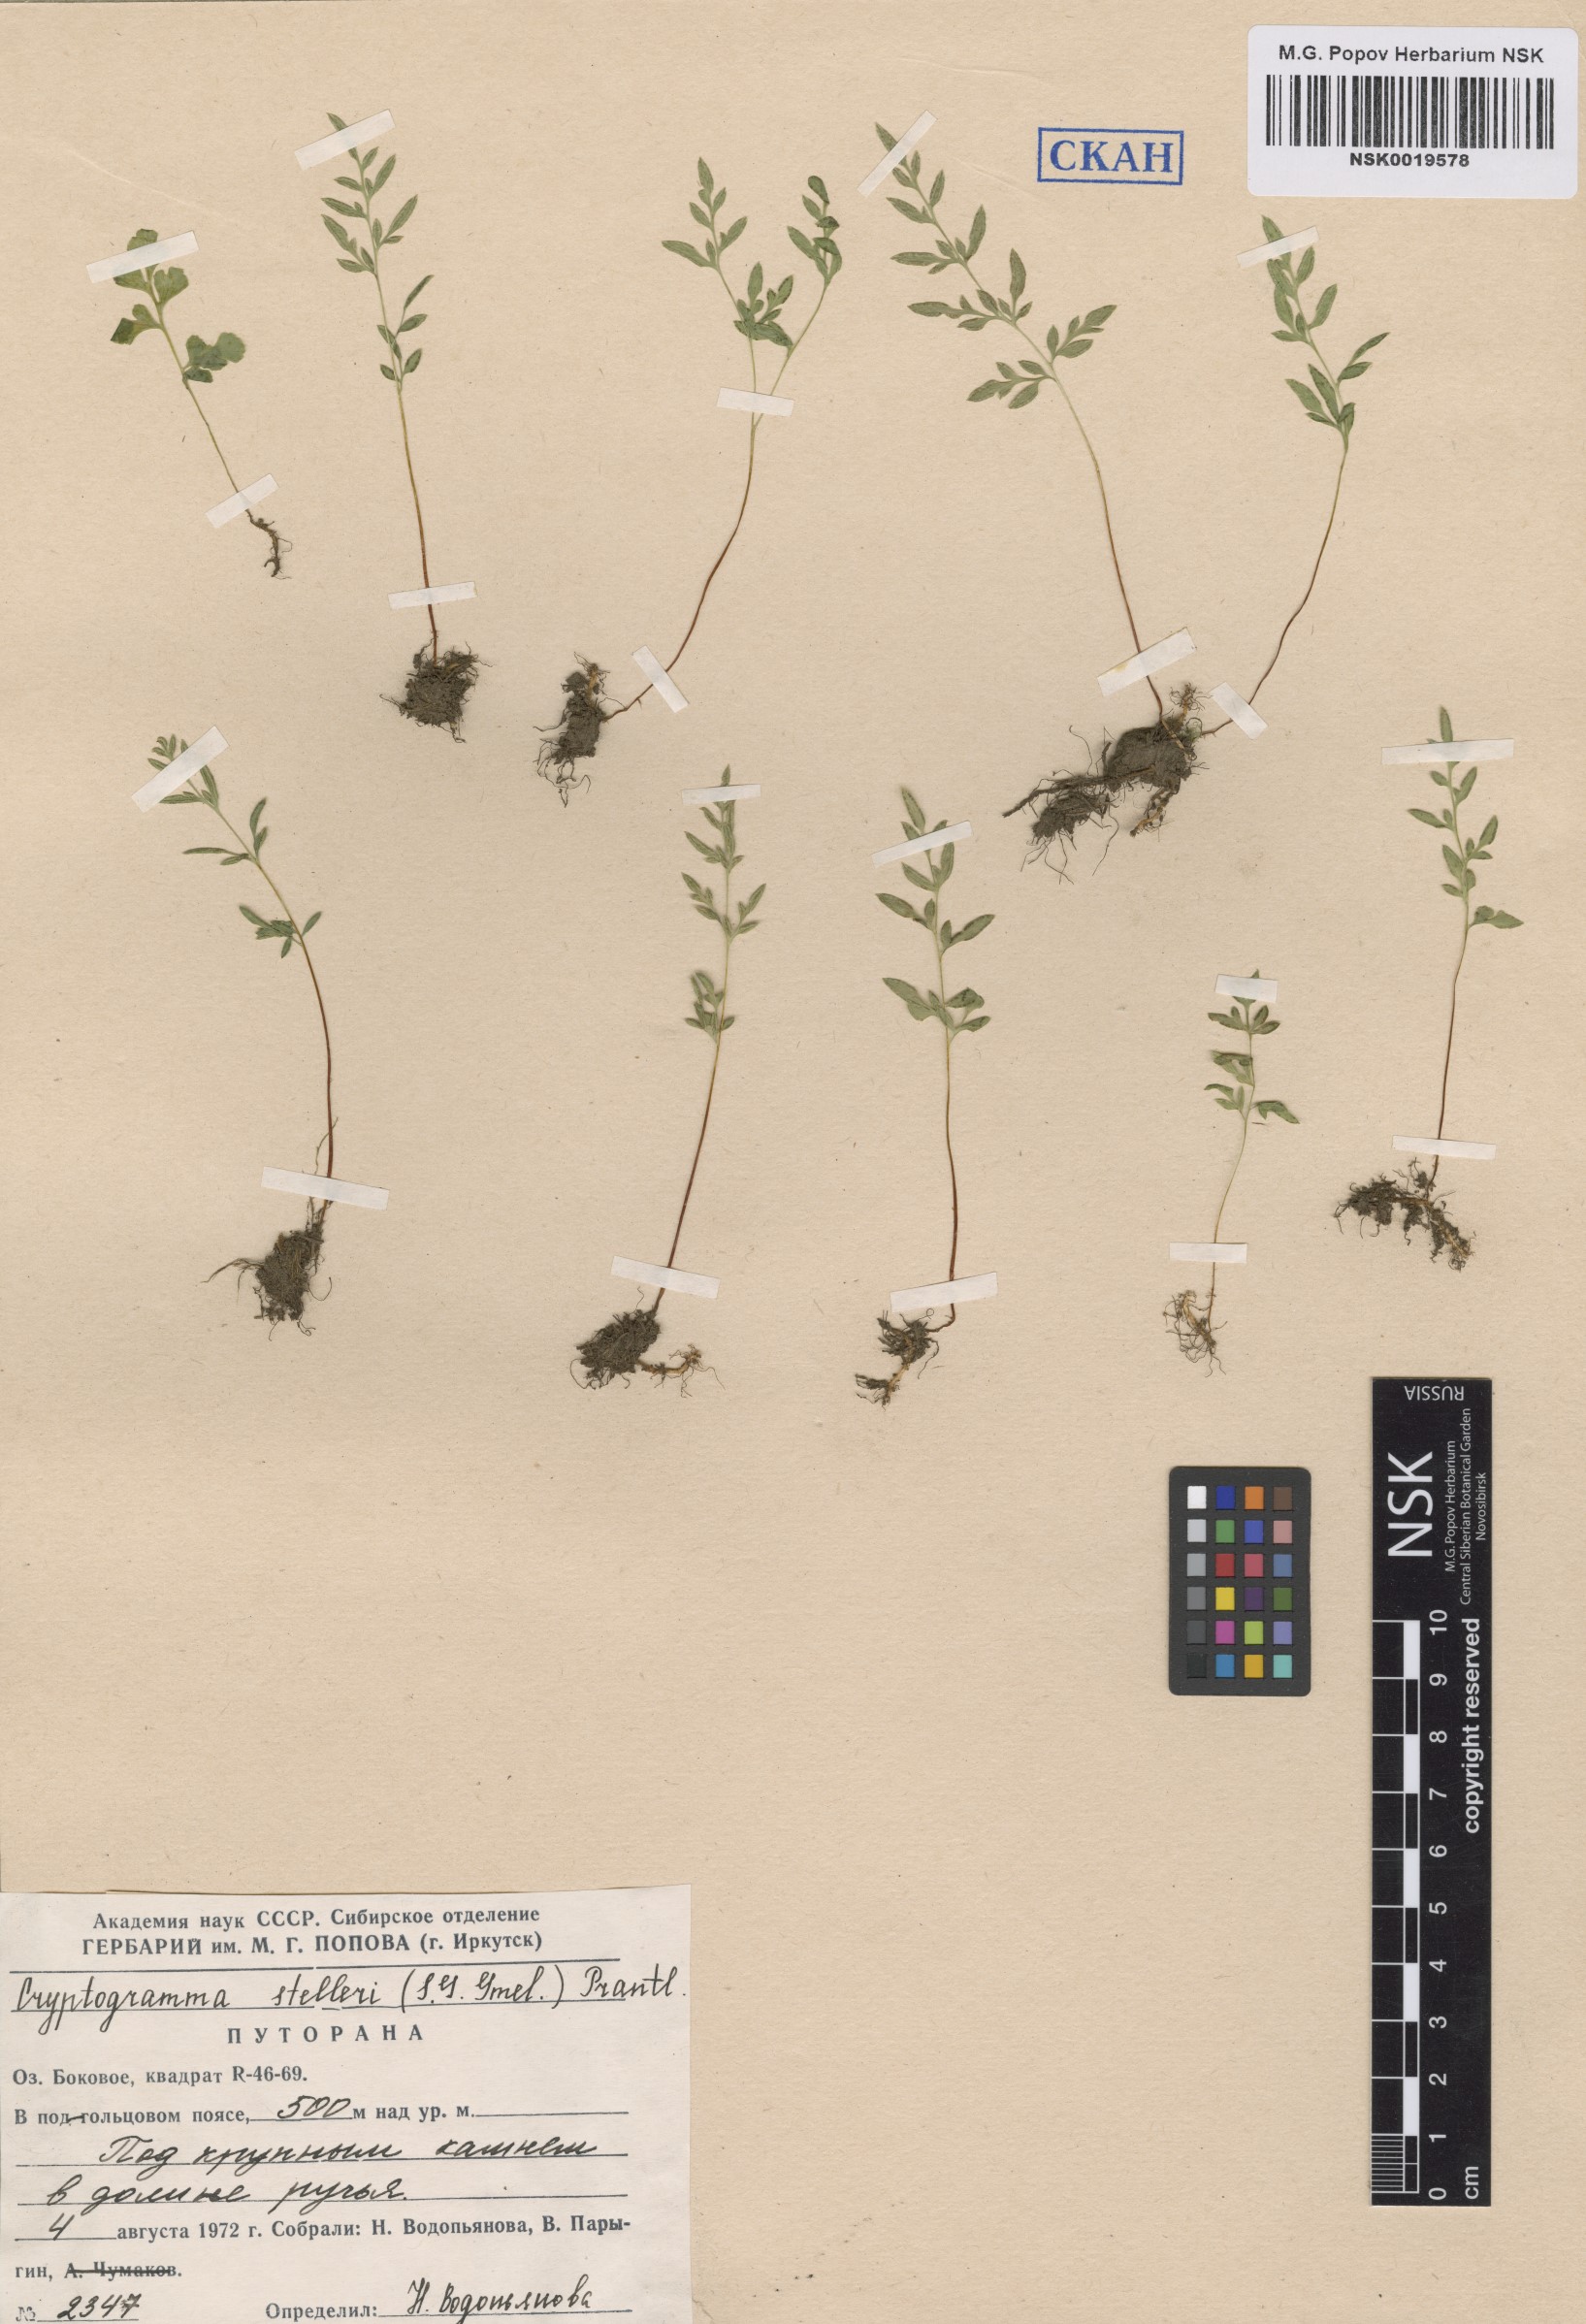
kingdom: Plantae
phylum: Tracheophyta
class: Polypodiopsida
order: Polypodiales
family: Pteridaceae
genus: Cryptogramma
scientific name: Cryptogramma stelleri
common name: Cliff-brake
